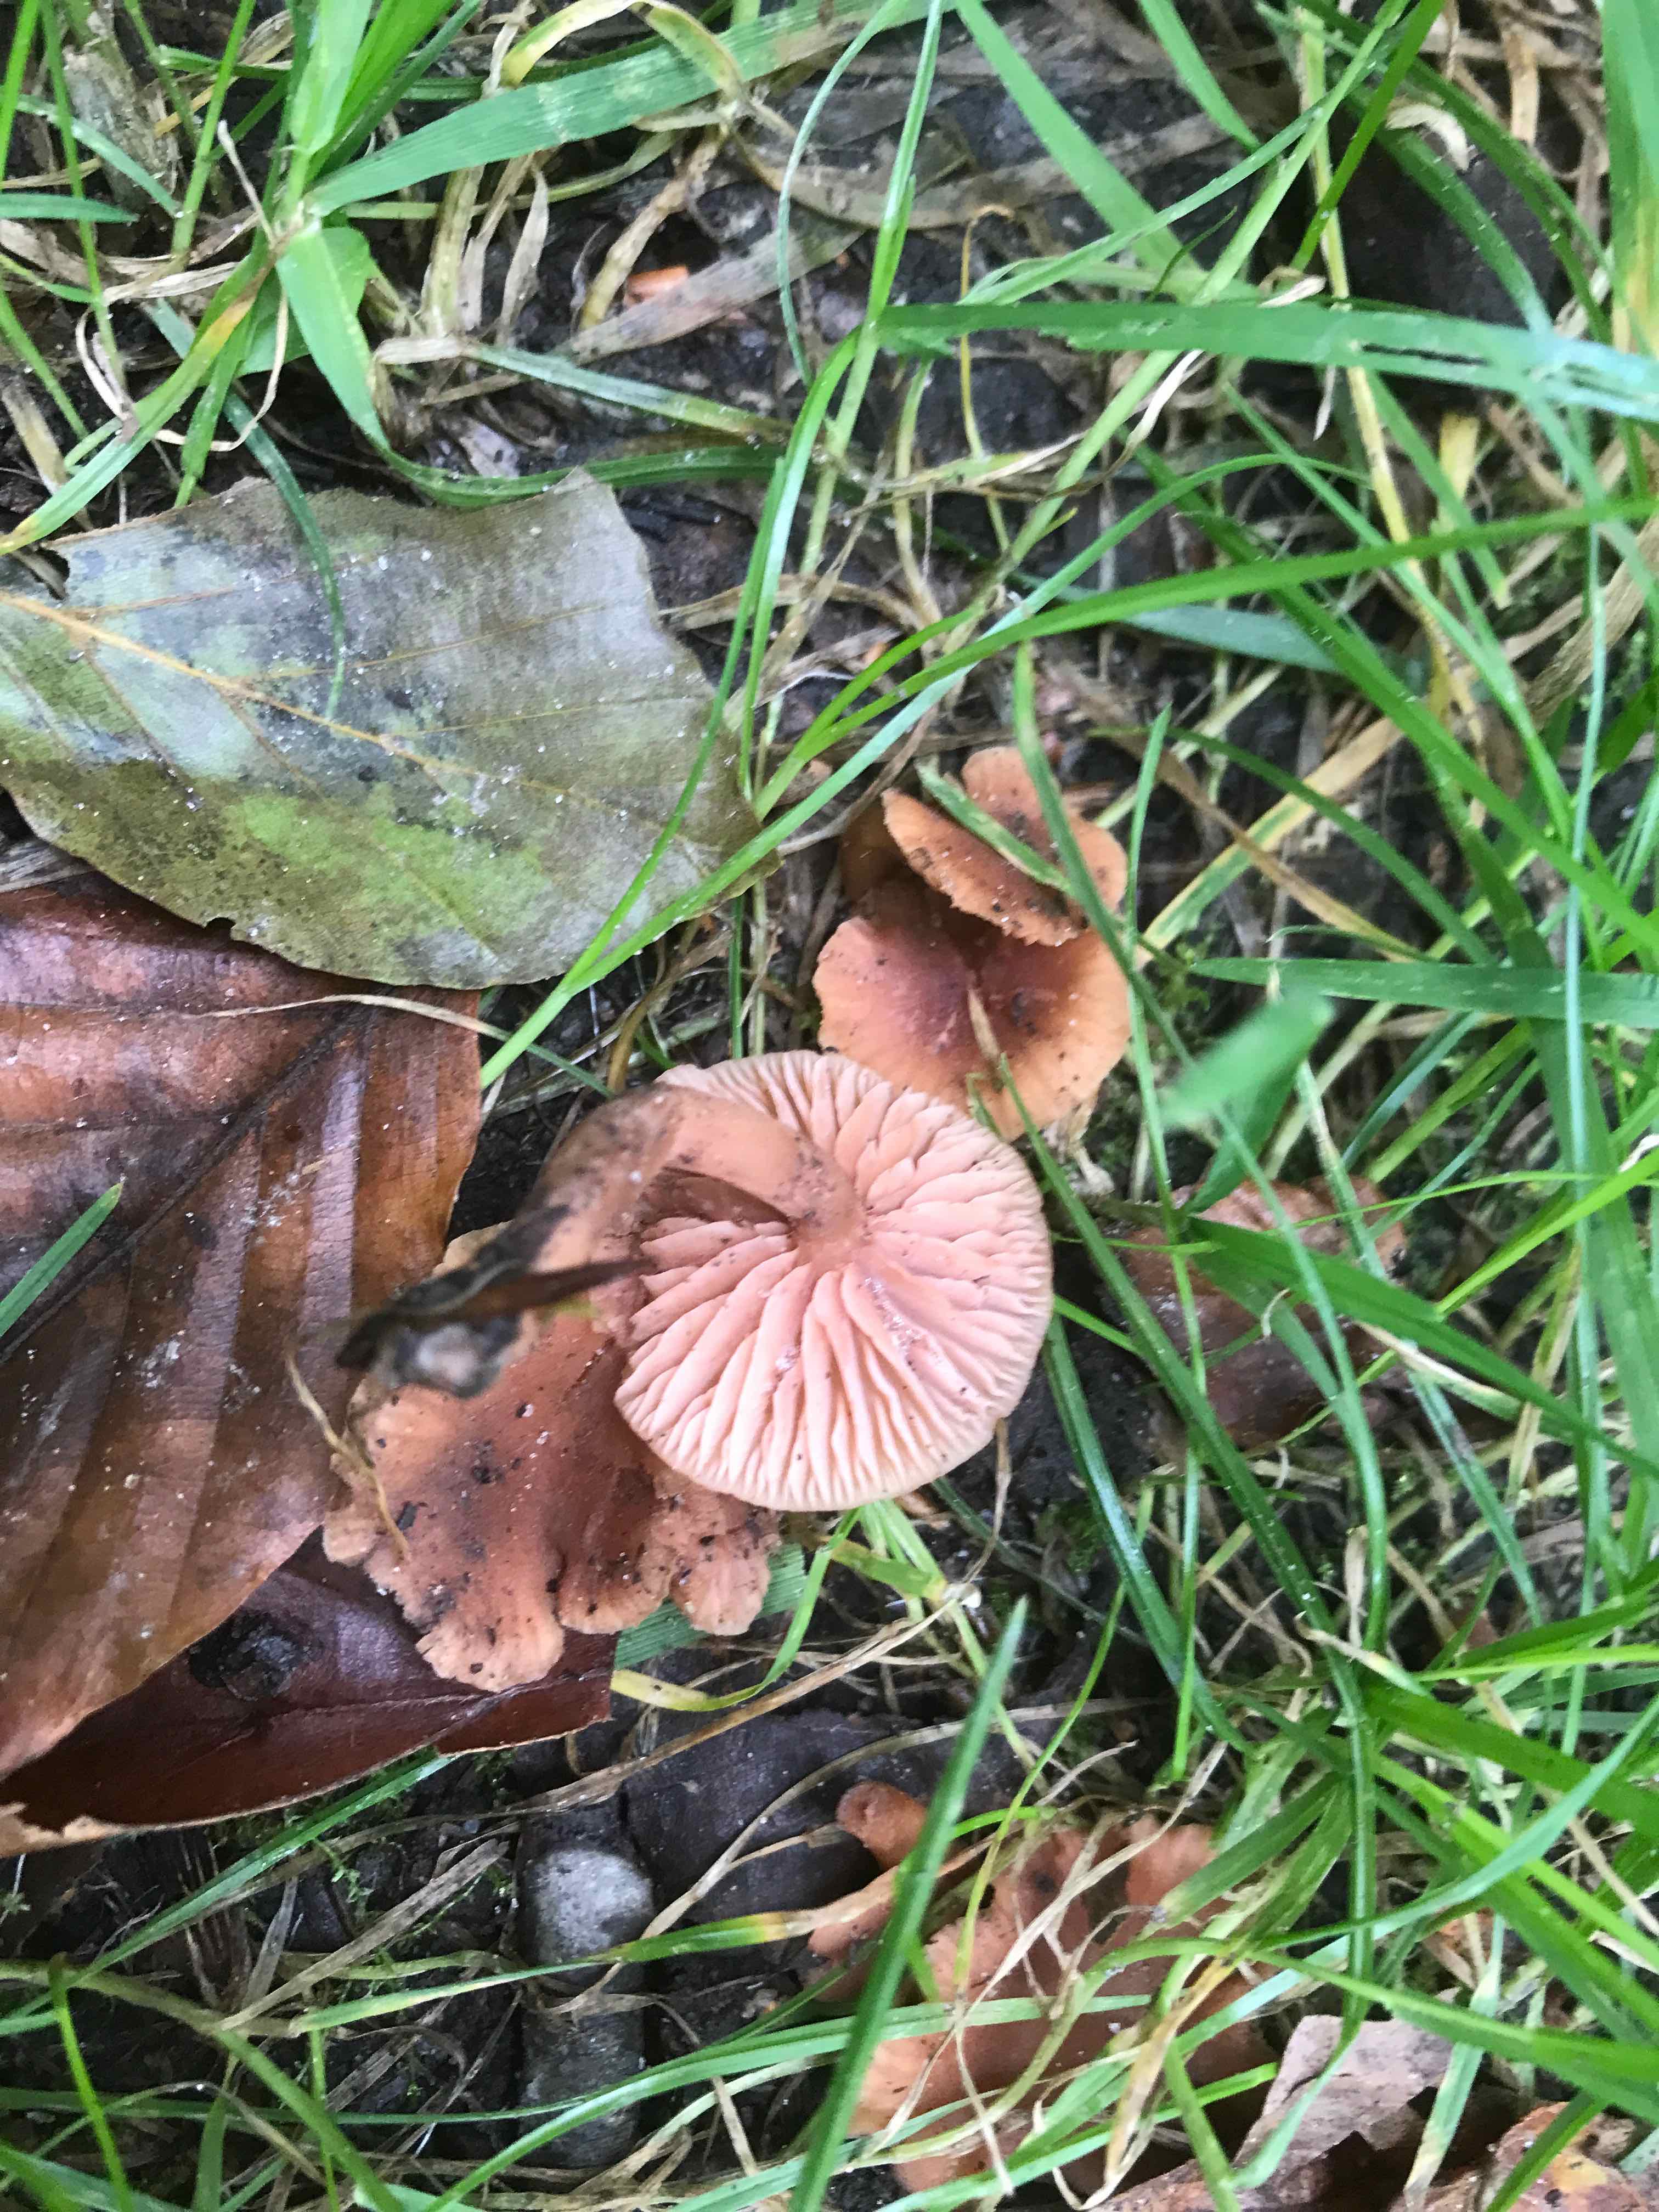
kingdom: Fungi
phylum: Basidiomycota
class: Agaricomycetes
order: Agaricales
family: Hydnangiaceae
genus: Laccaria
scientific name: Laccaria laccata
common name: rød ametysthat
